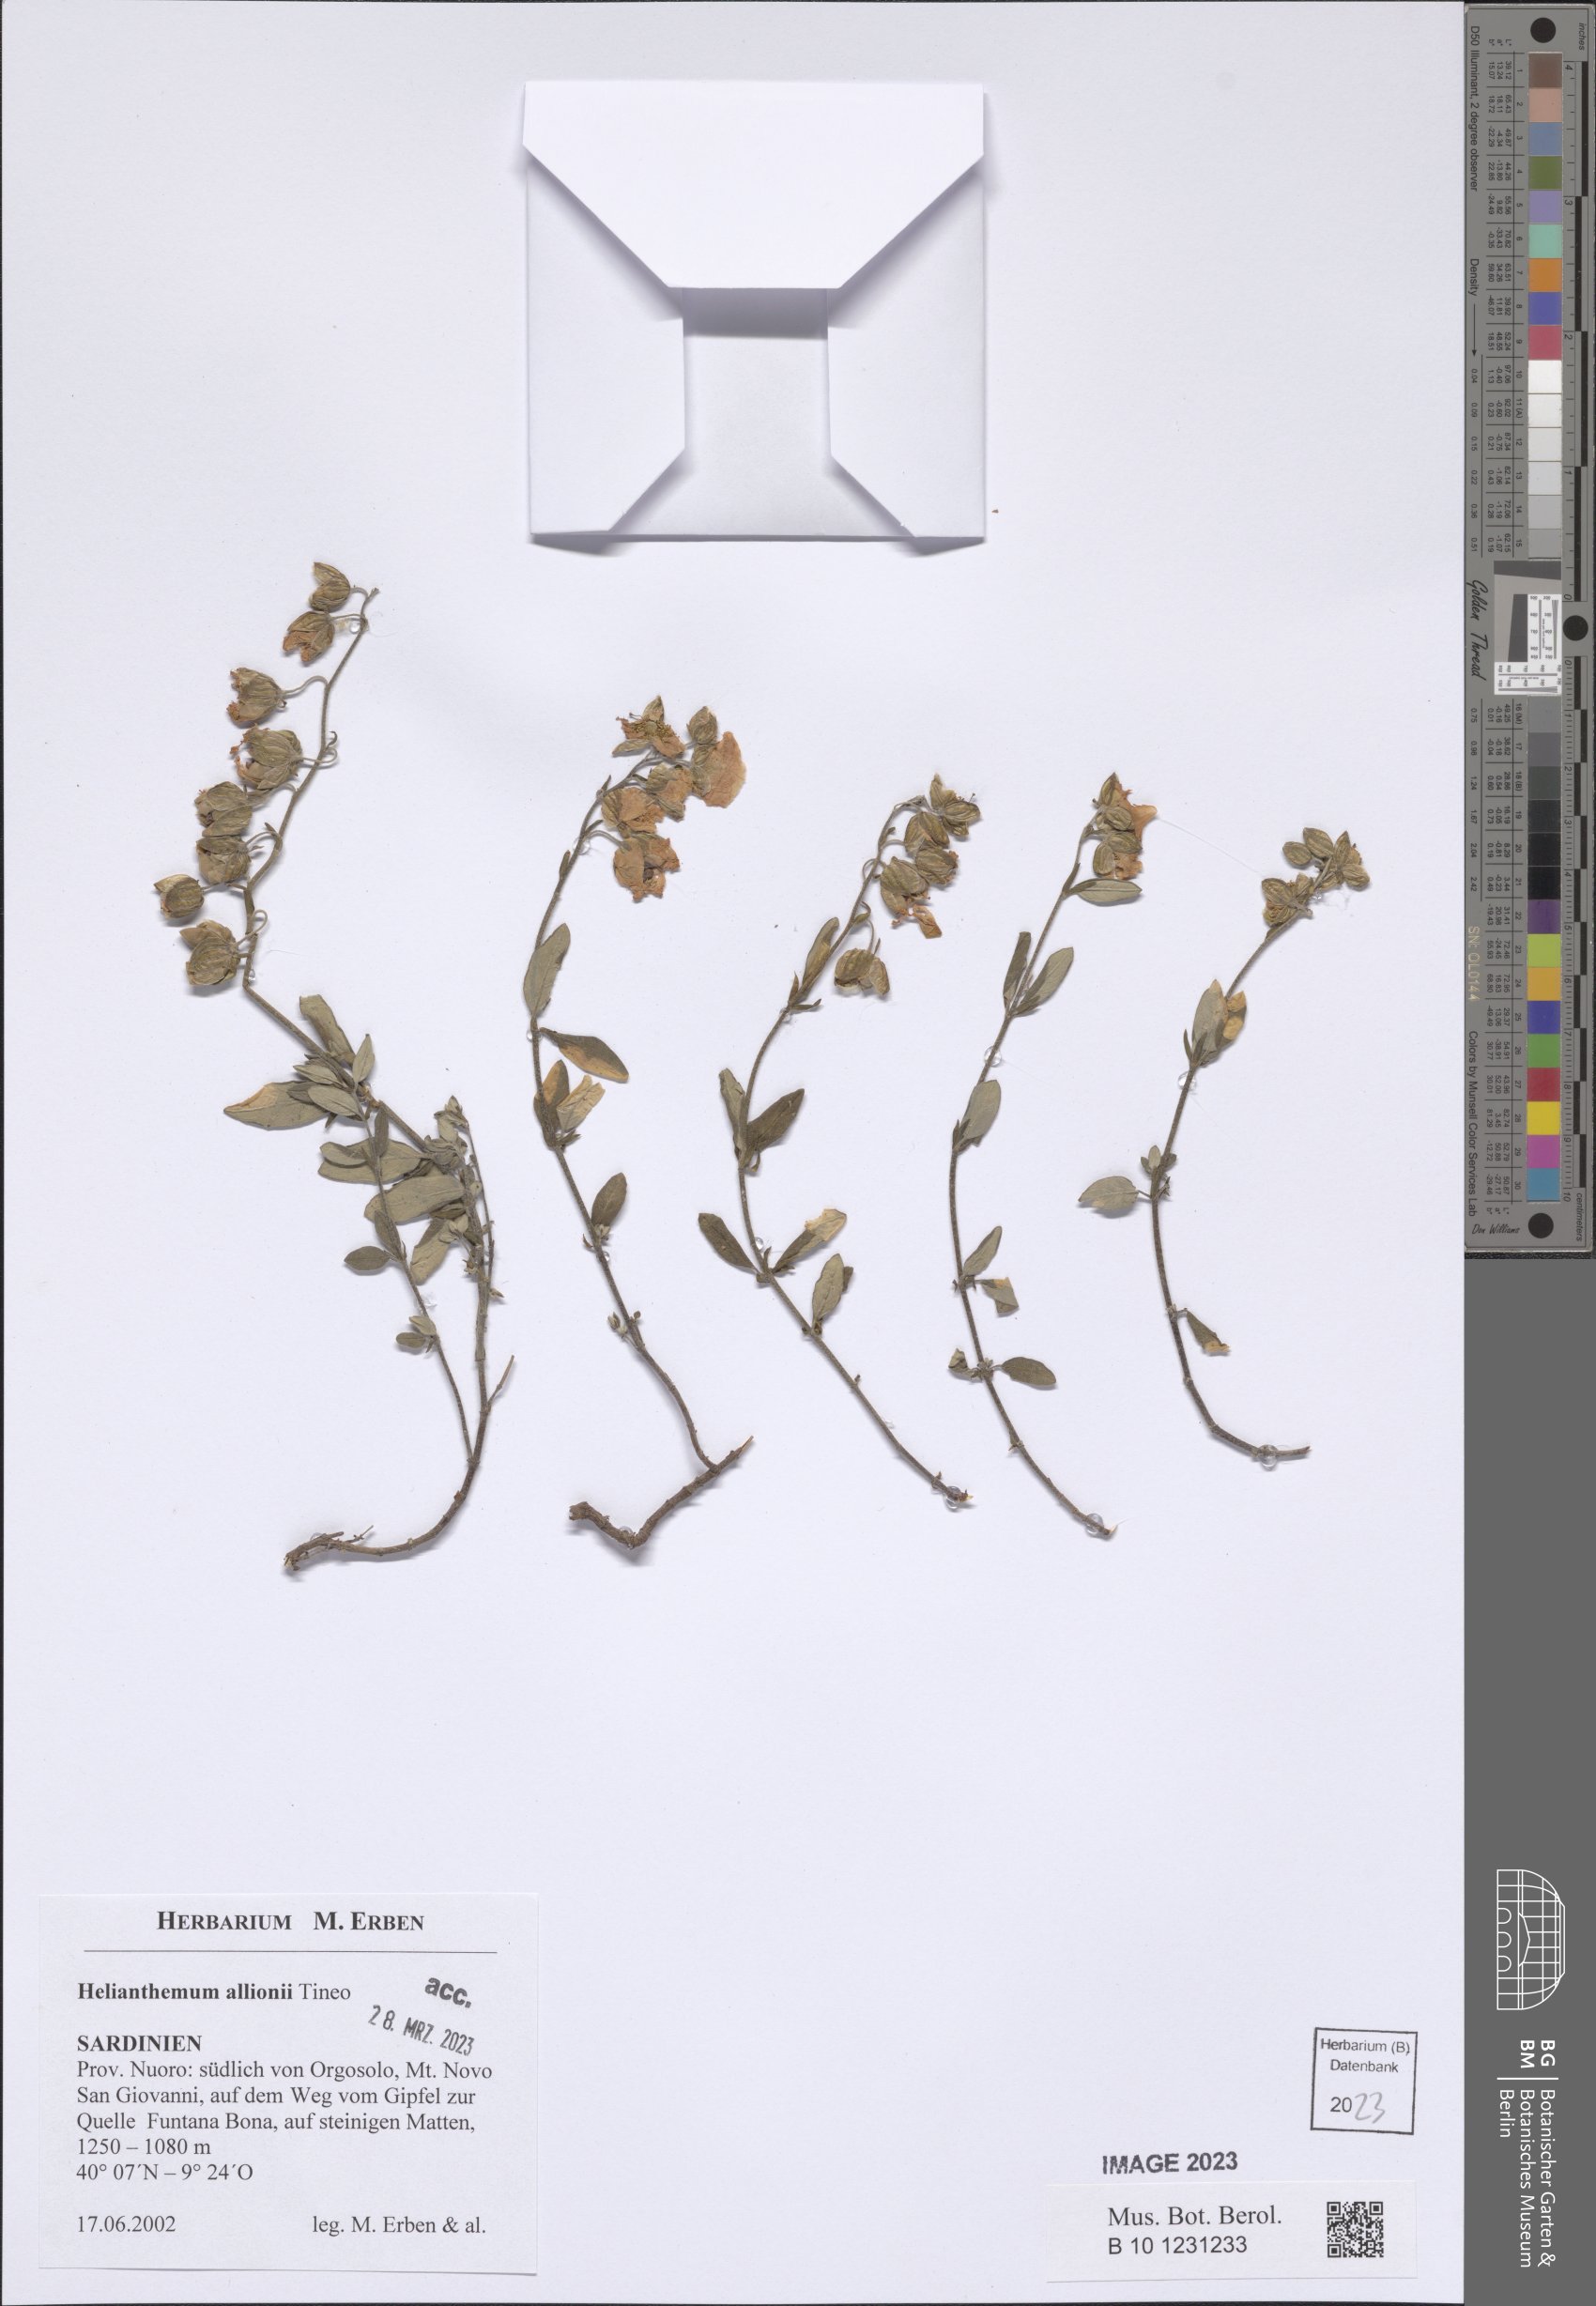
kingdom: Plantae
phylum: Tracheophyta
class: Magnoliopsida
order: Malvales
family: Cistaceae
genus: Helianthemum
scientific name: Helianthemum nebrodense
